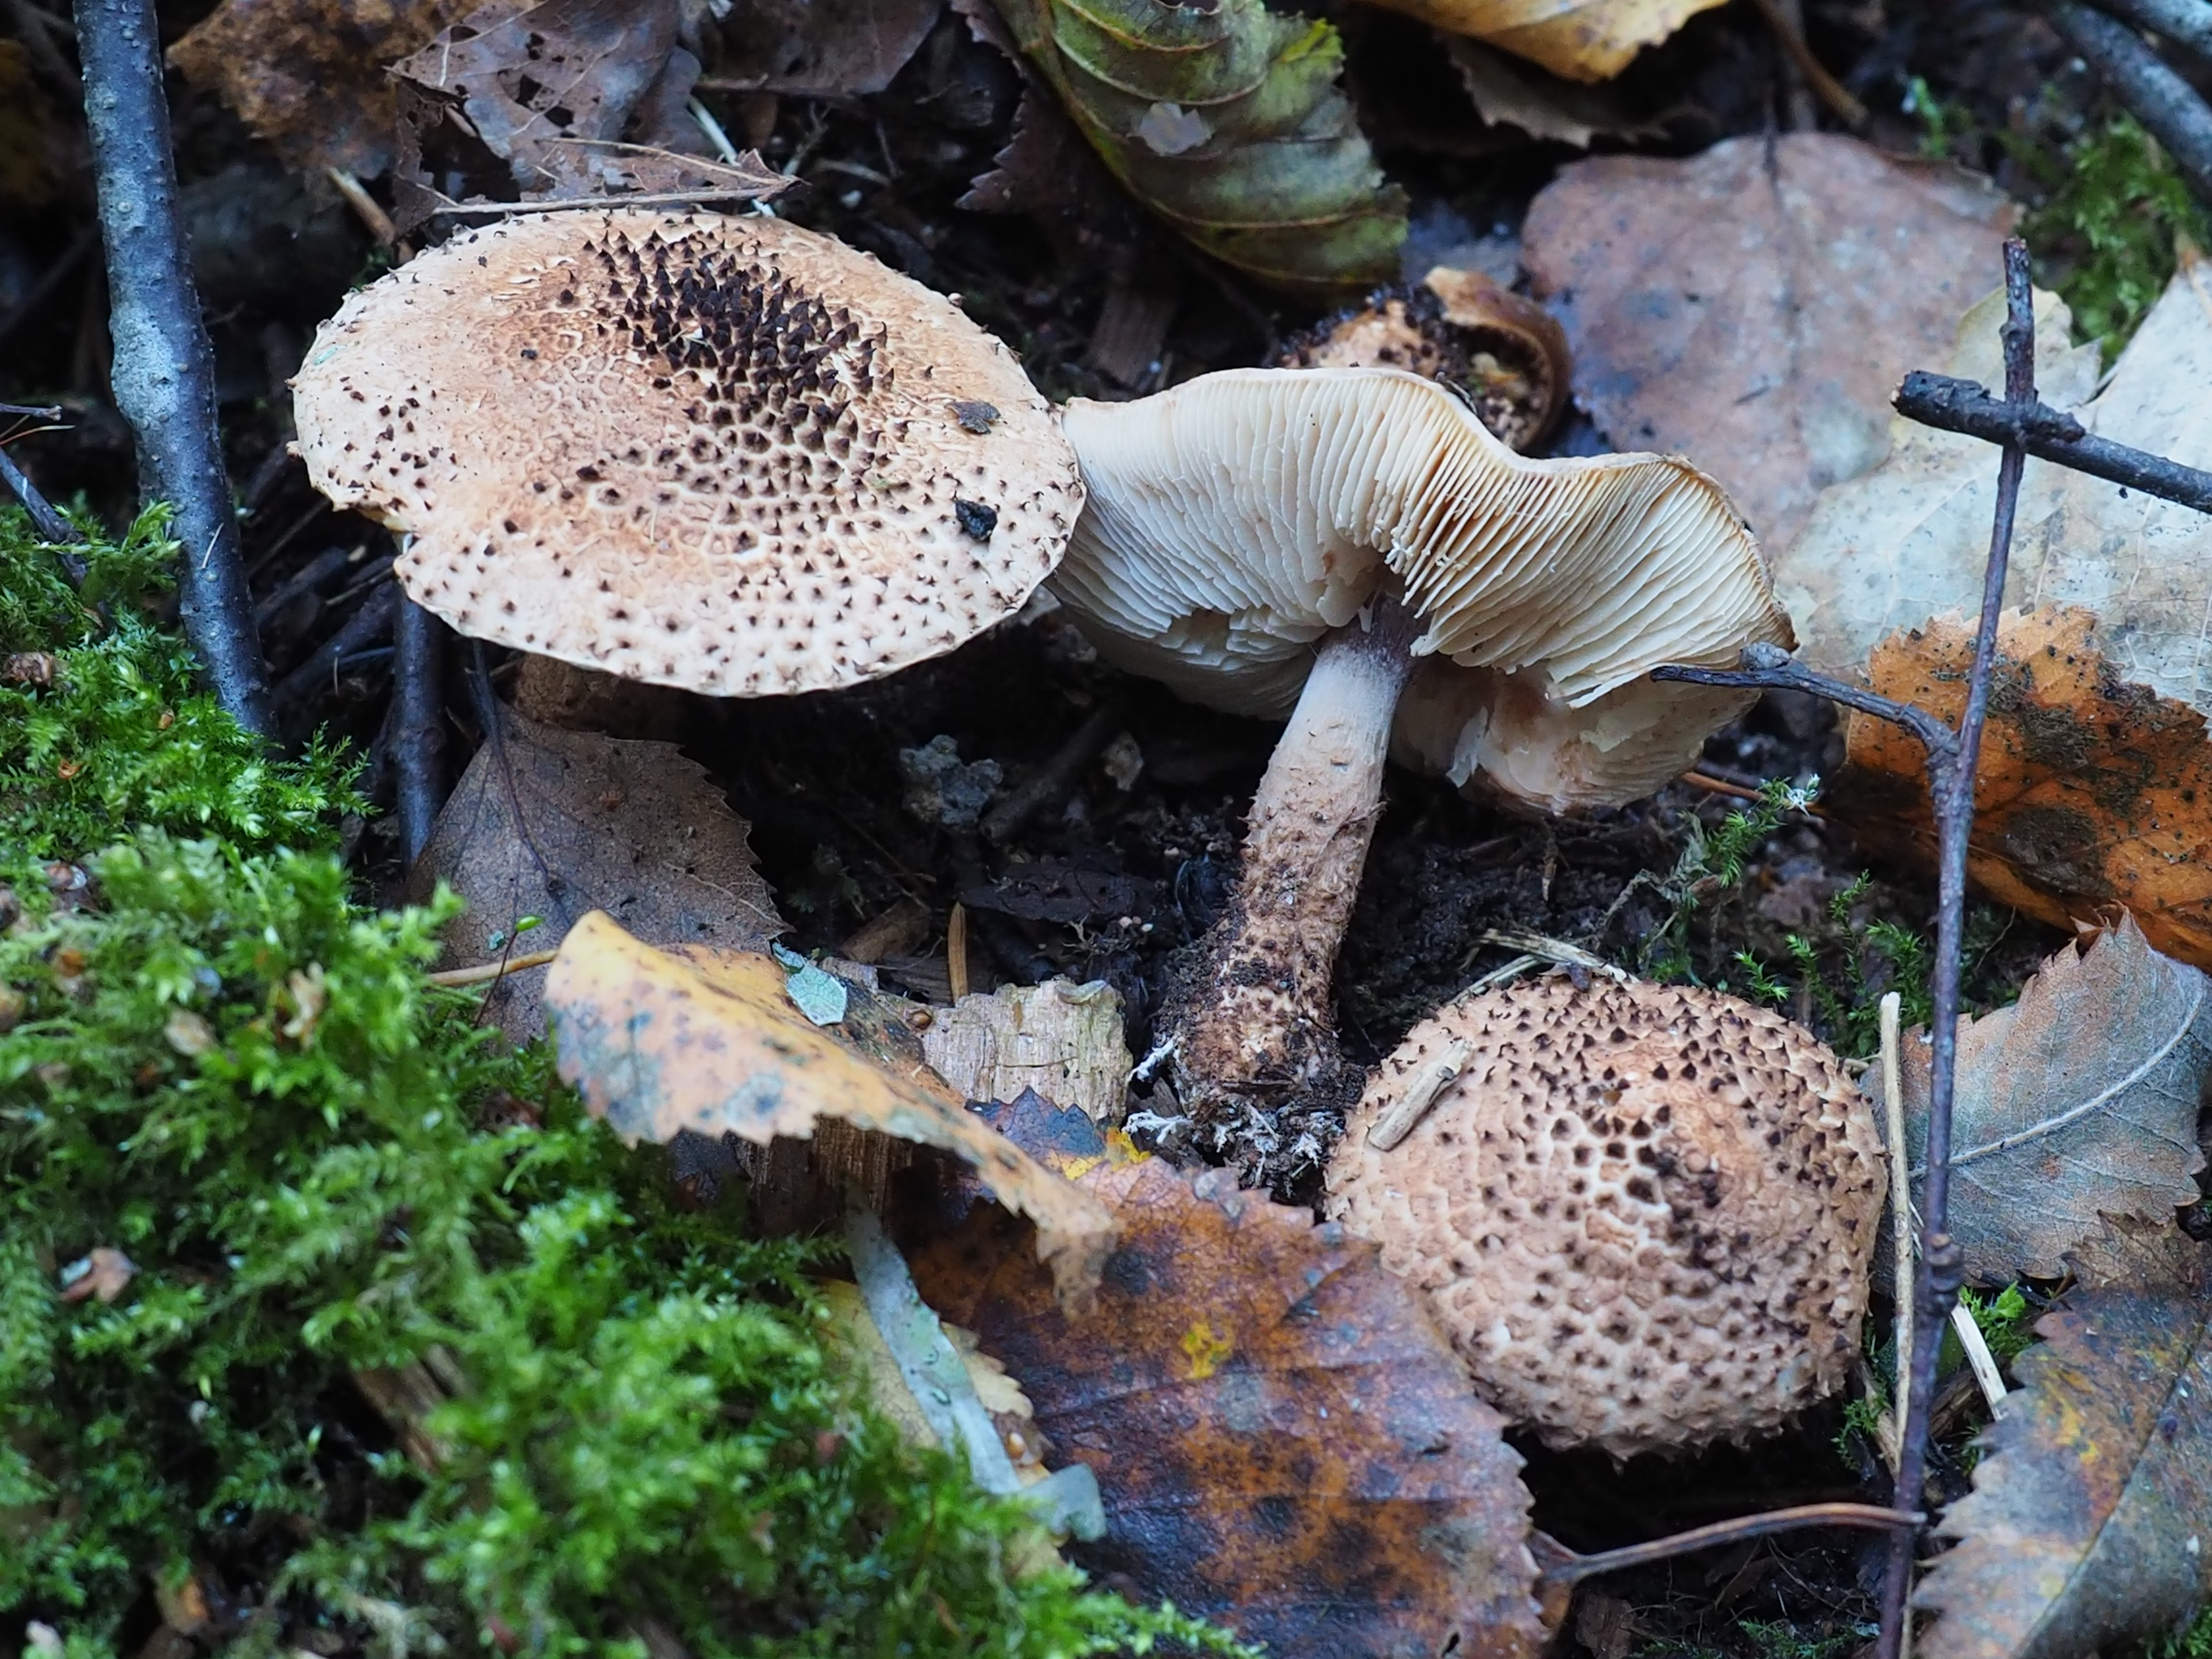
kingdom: Fungi
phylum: Basidiomycota
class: Agaricomycetes
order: Agaricales
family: Agaricaceae
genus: Echinoderma
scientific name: Echinoderma echinaceum
